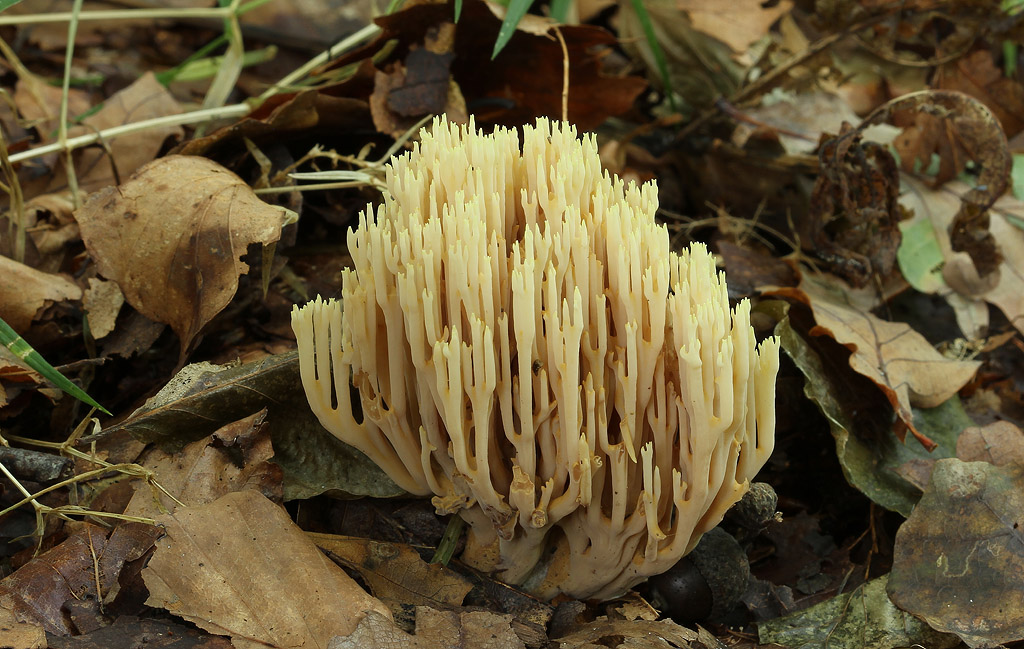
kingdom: Fungi
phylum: Basidiomycota
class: Agaricomycetes
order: Gomphales
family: Gomphaceae
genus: Ramaria
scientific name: Ramaria stricta
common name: rank koralsvamp
